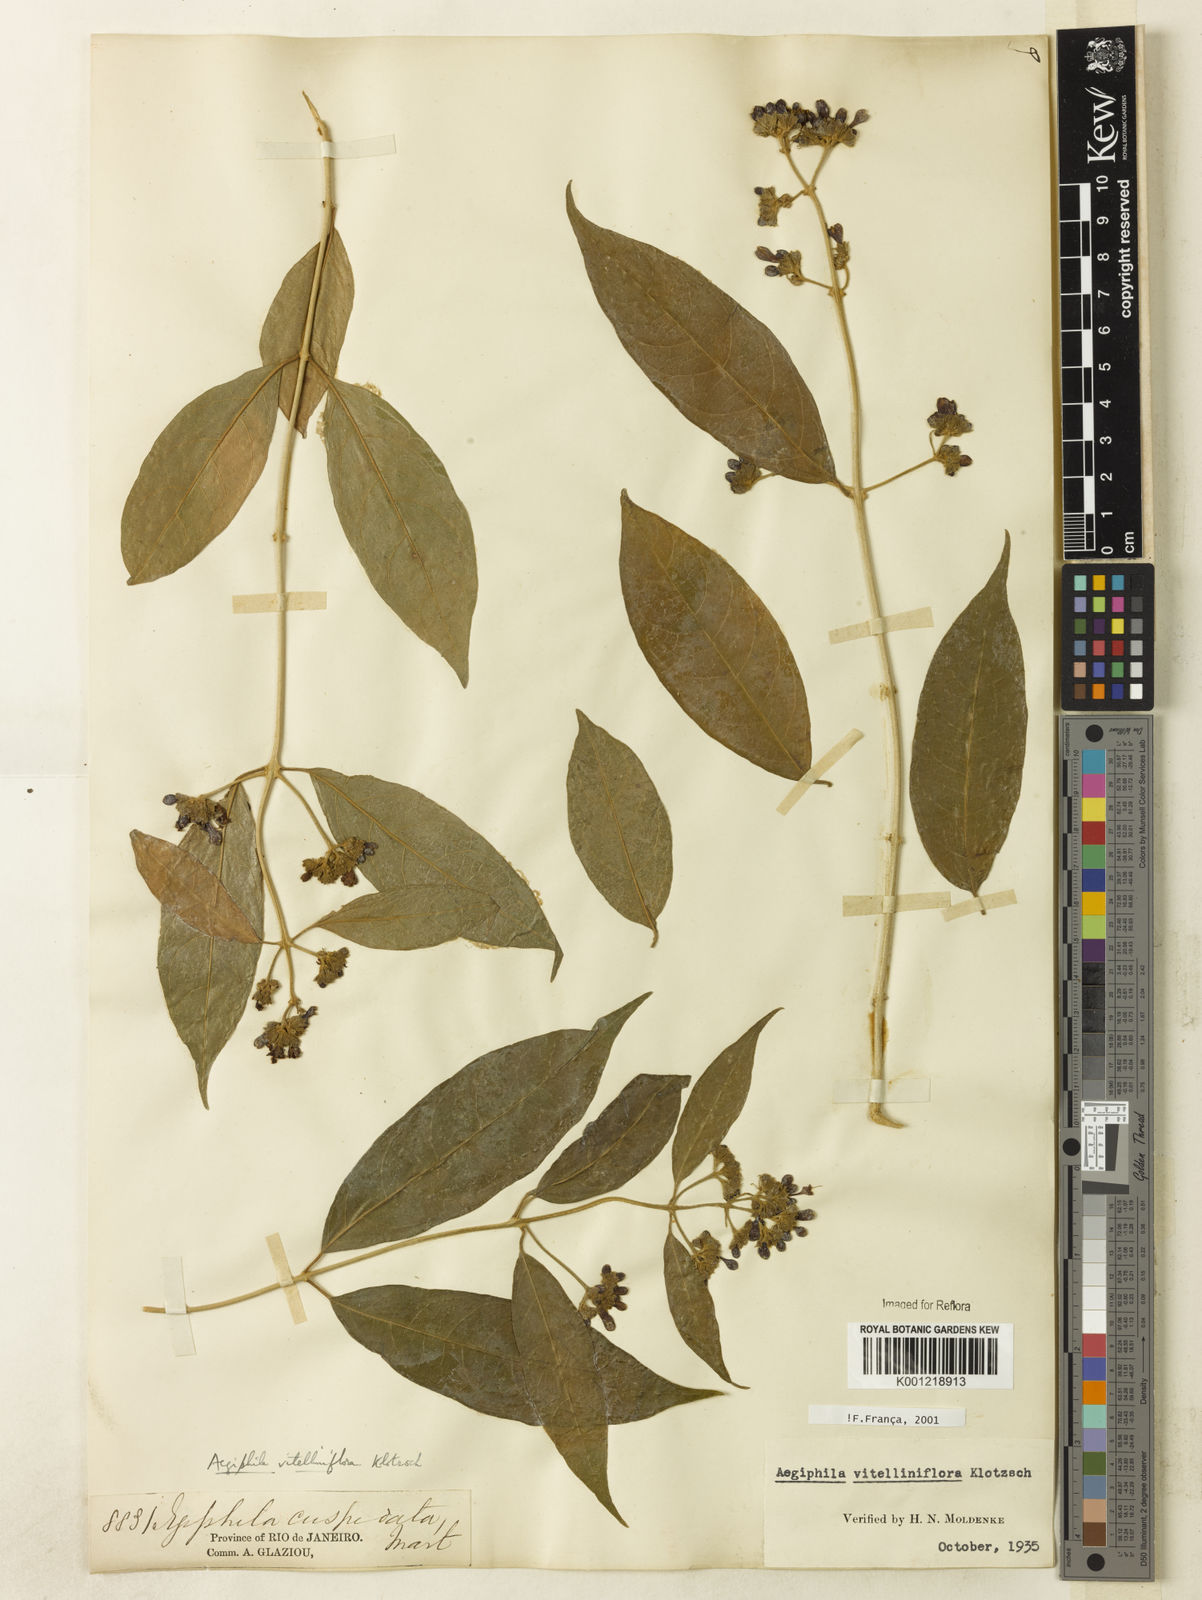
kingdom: Plantae
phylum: Tracheophyta
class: Magnoliopsida
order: Lamiales
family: Lamiaceae
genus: Aegiphila
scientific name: Aegiphila
